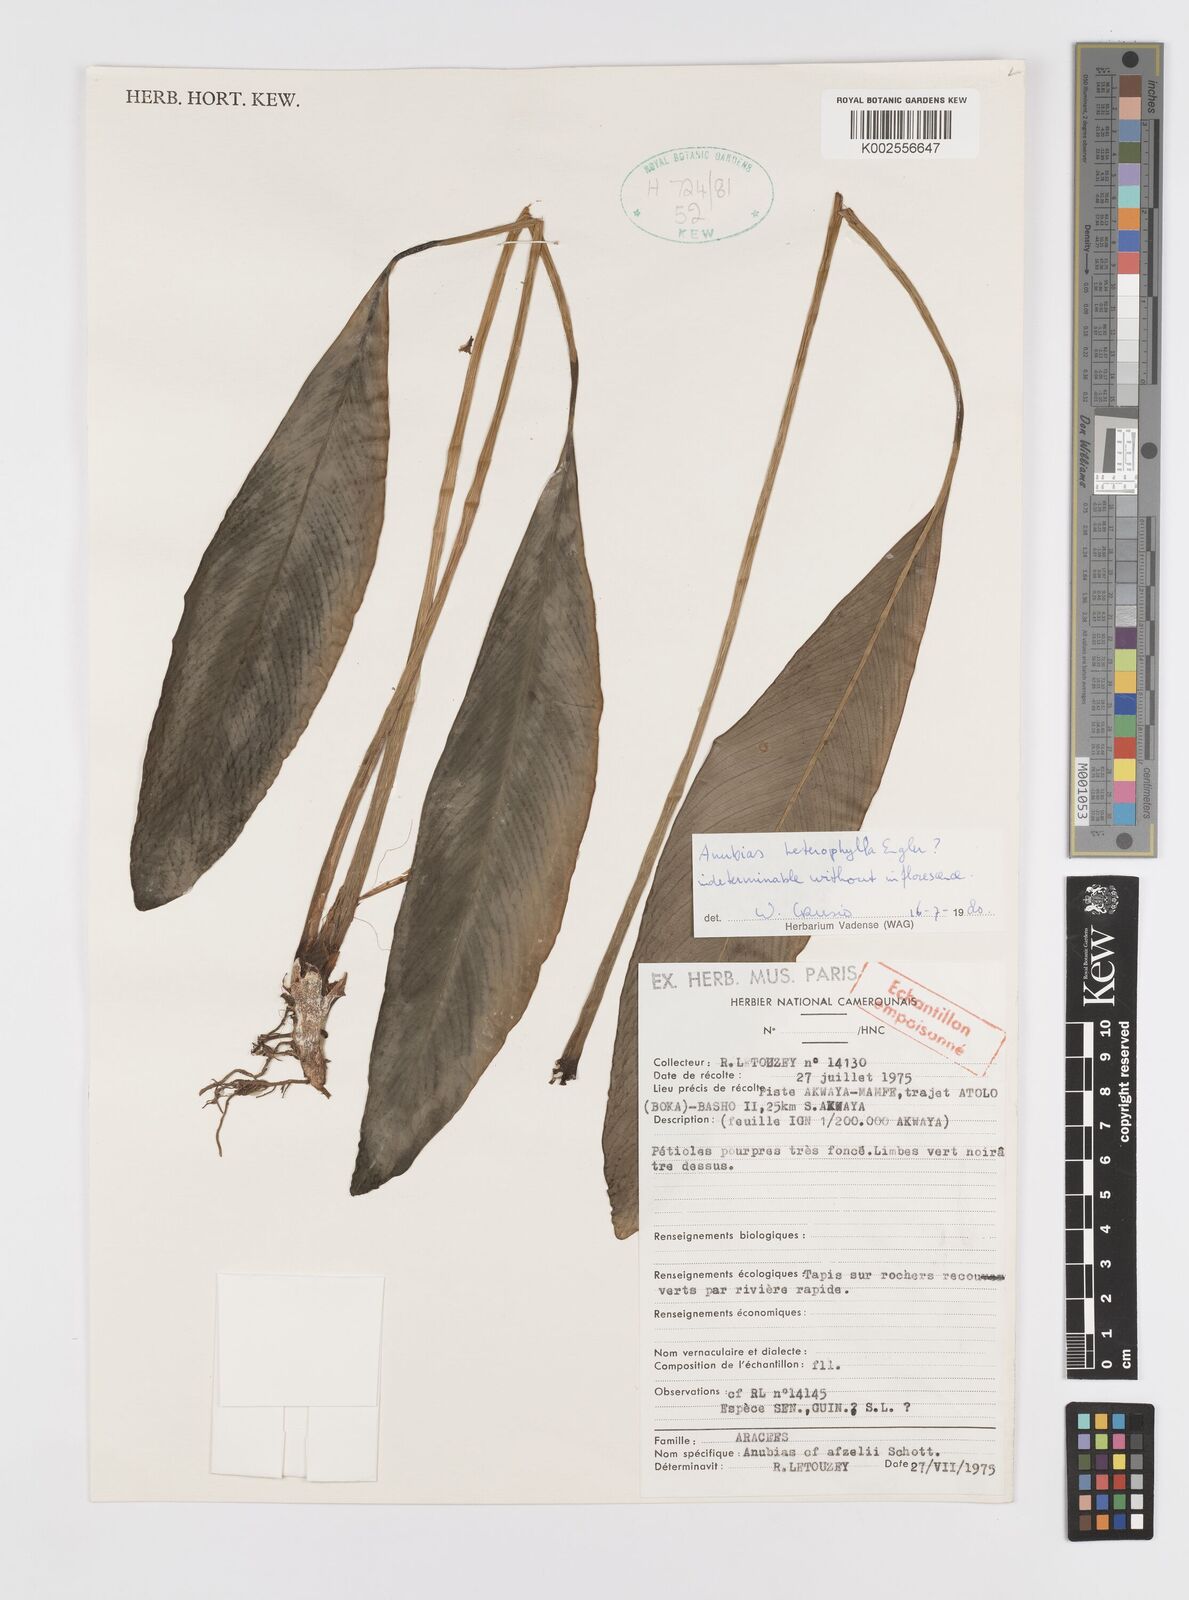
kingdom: Plantae
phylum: Tracheophyta
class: Liliopsida
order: Alismatales
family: Araceae
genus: Anubias
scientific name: Anubias heterophylla
